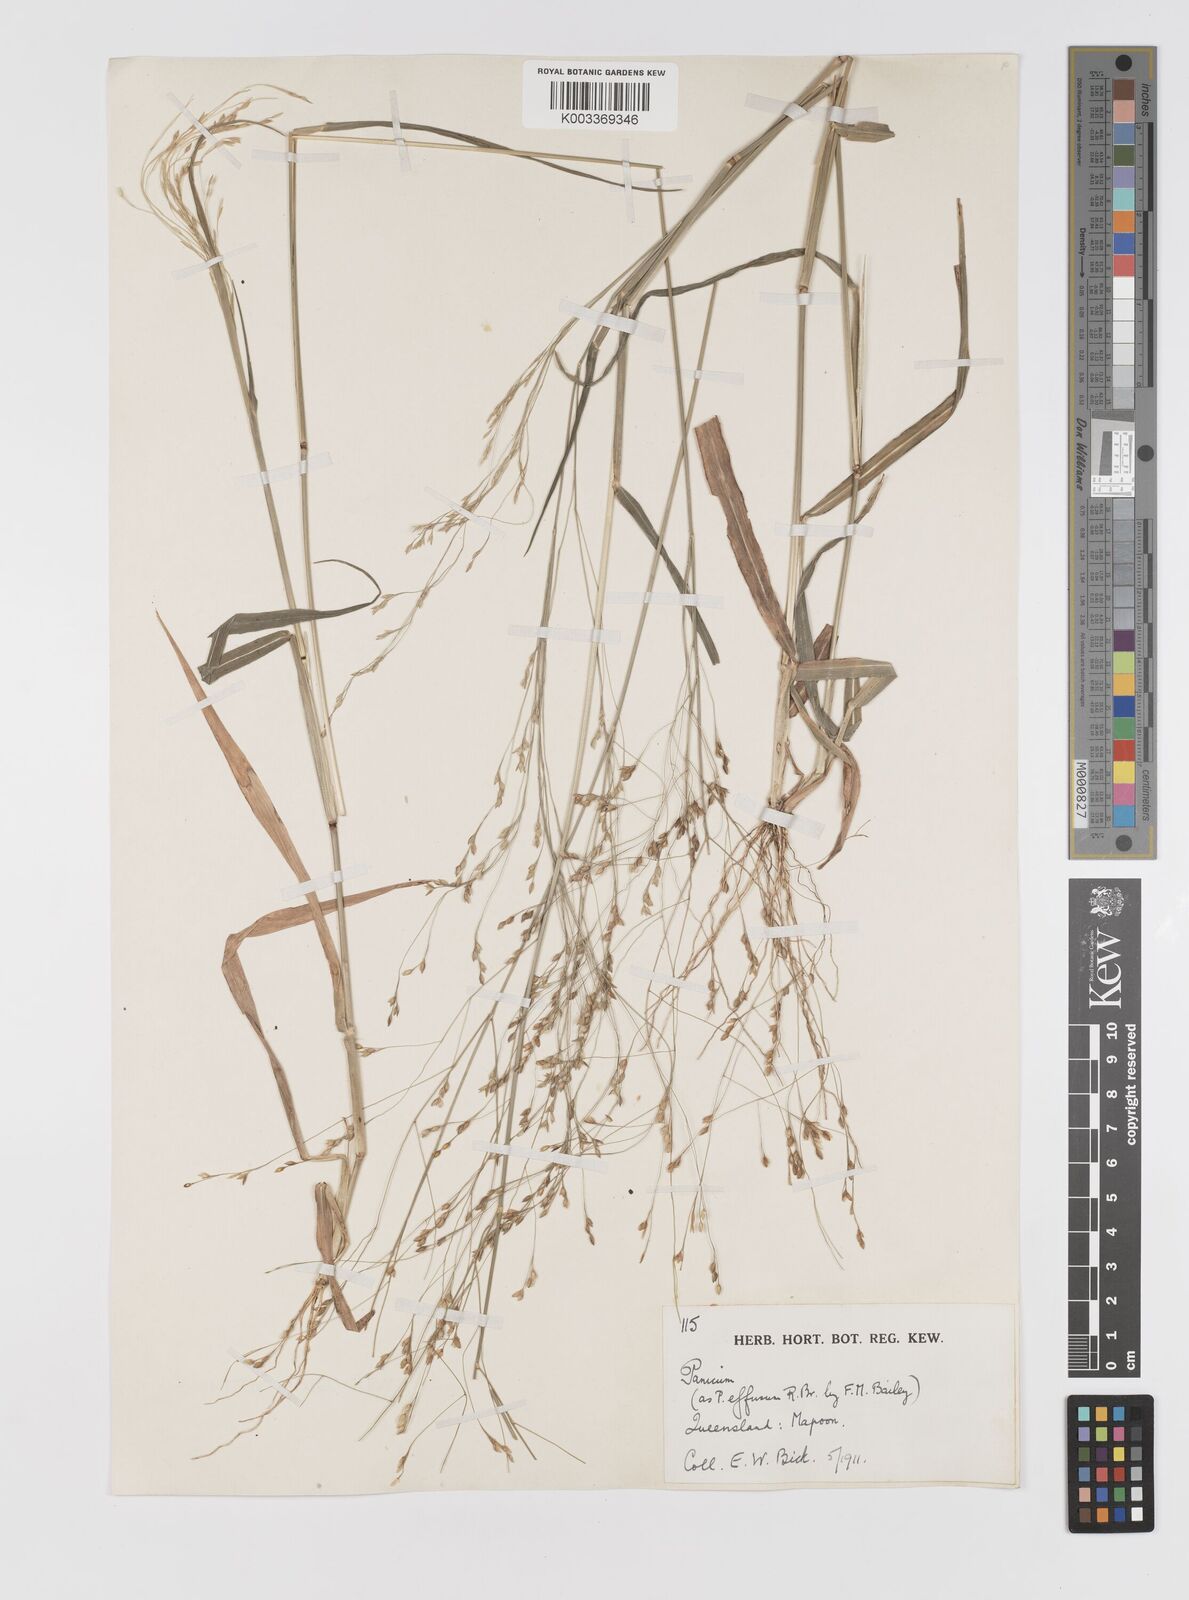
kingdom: Plantae
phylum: Tracheophyta
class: Liliopsida
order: Poales
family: Poaceae
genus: Panicum
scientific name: Panicum seminudum
